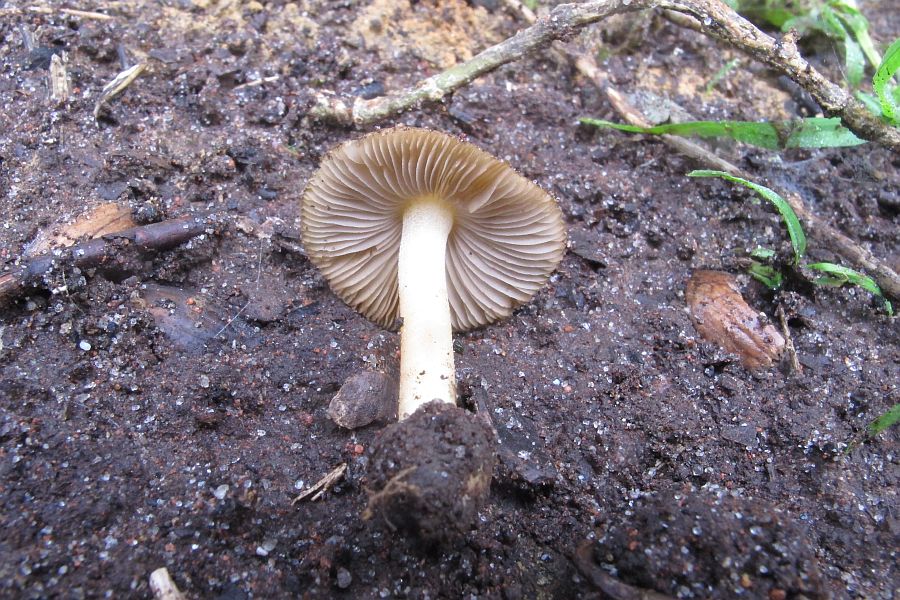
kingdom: Fungi
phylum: Basidiomycota
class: Agaricomycetes
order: Agaricales
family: Inocybaceae
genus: Inocybe
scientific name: Inocybe
